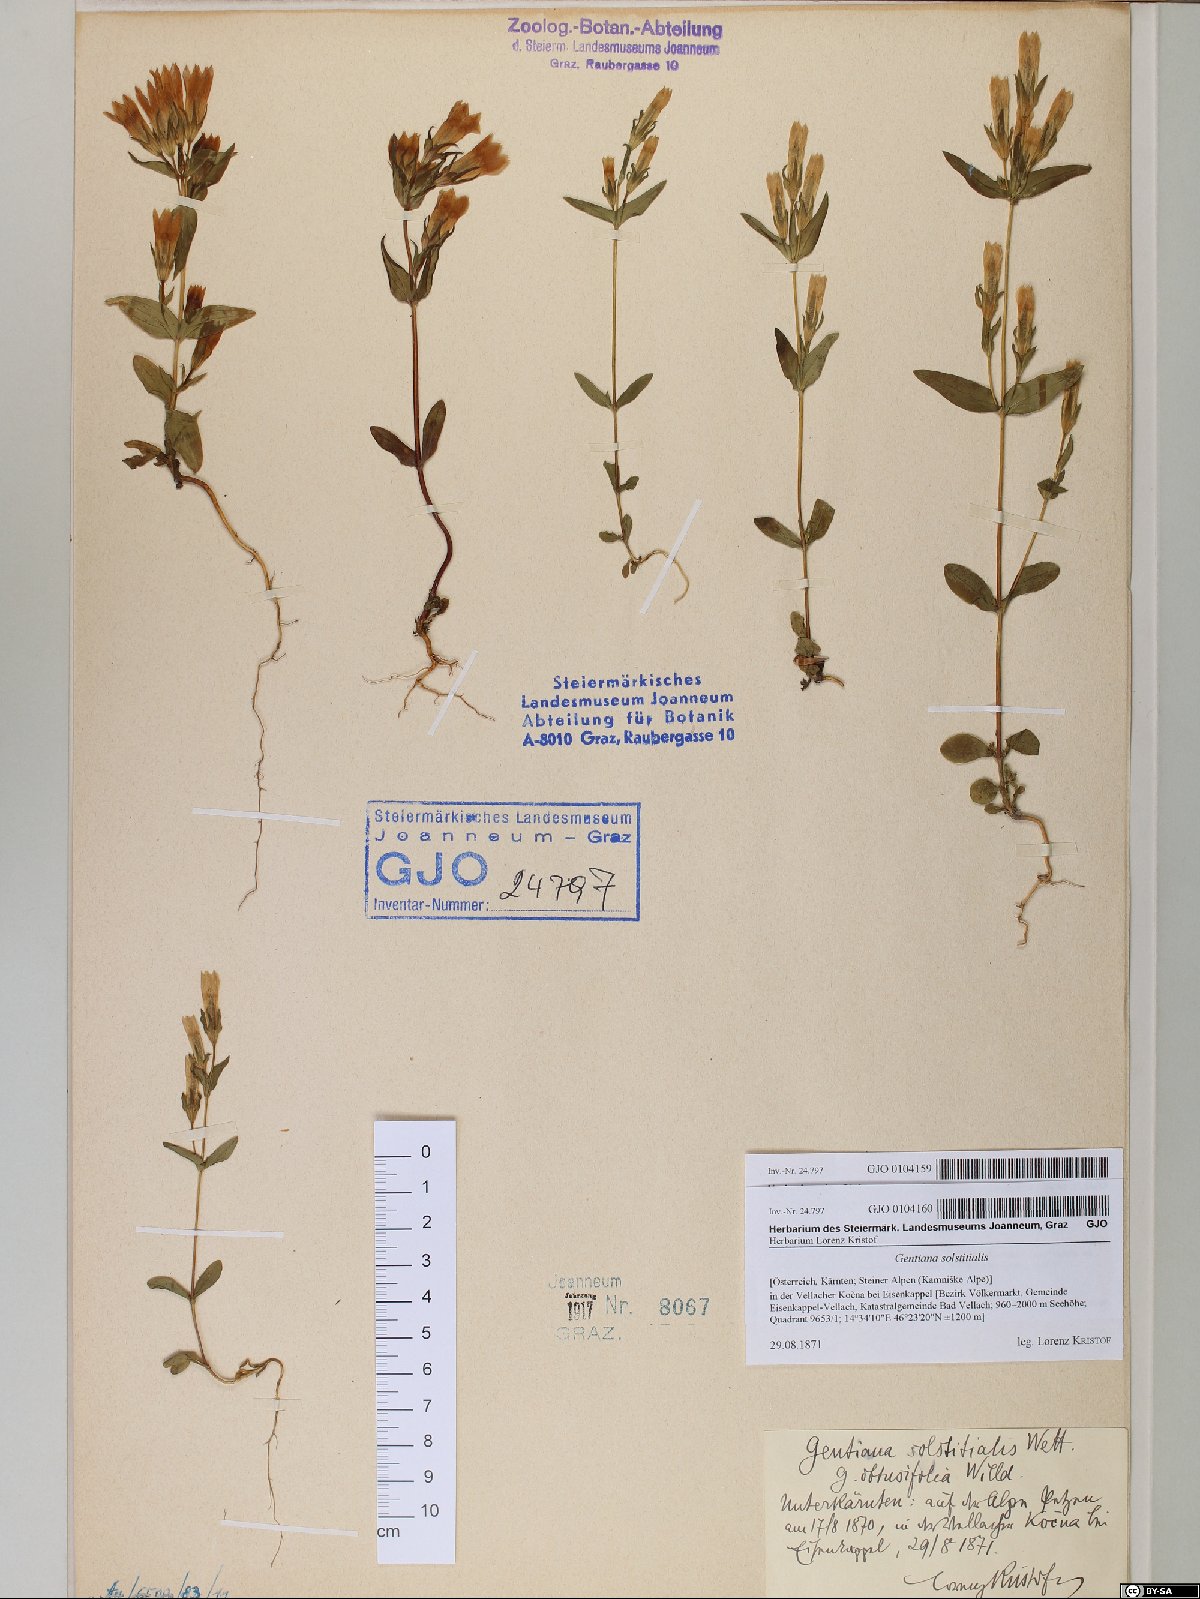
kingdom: Plantae
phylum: Tracheophyta
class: Magnoliopsida
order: Gentianales
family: Gentianaceae
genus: Gentianella
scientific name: Gentianella germanica
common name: Chiltern-gentian
